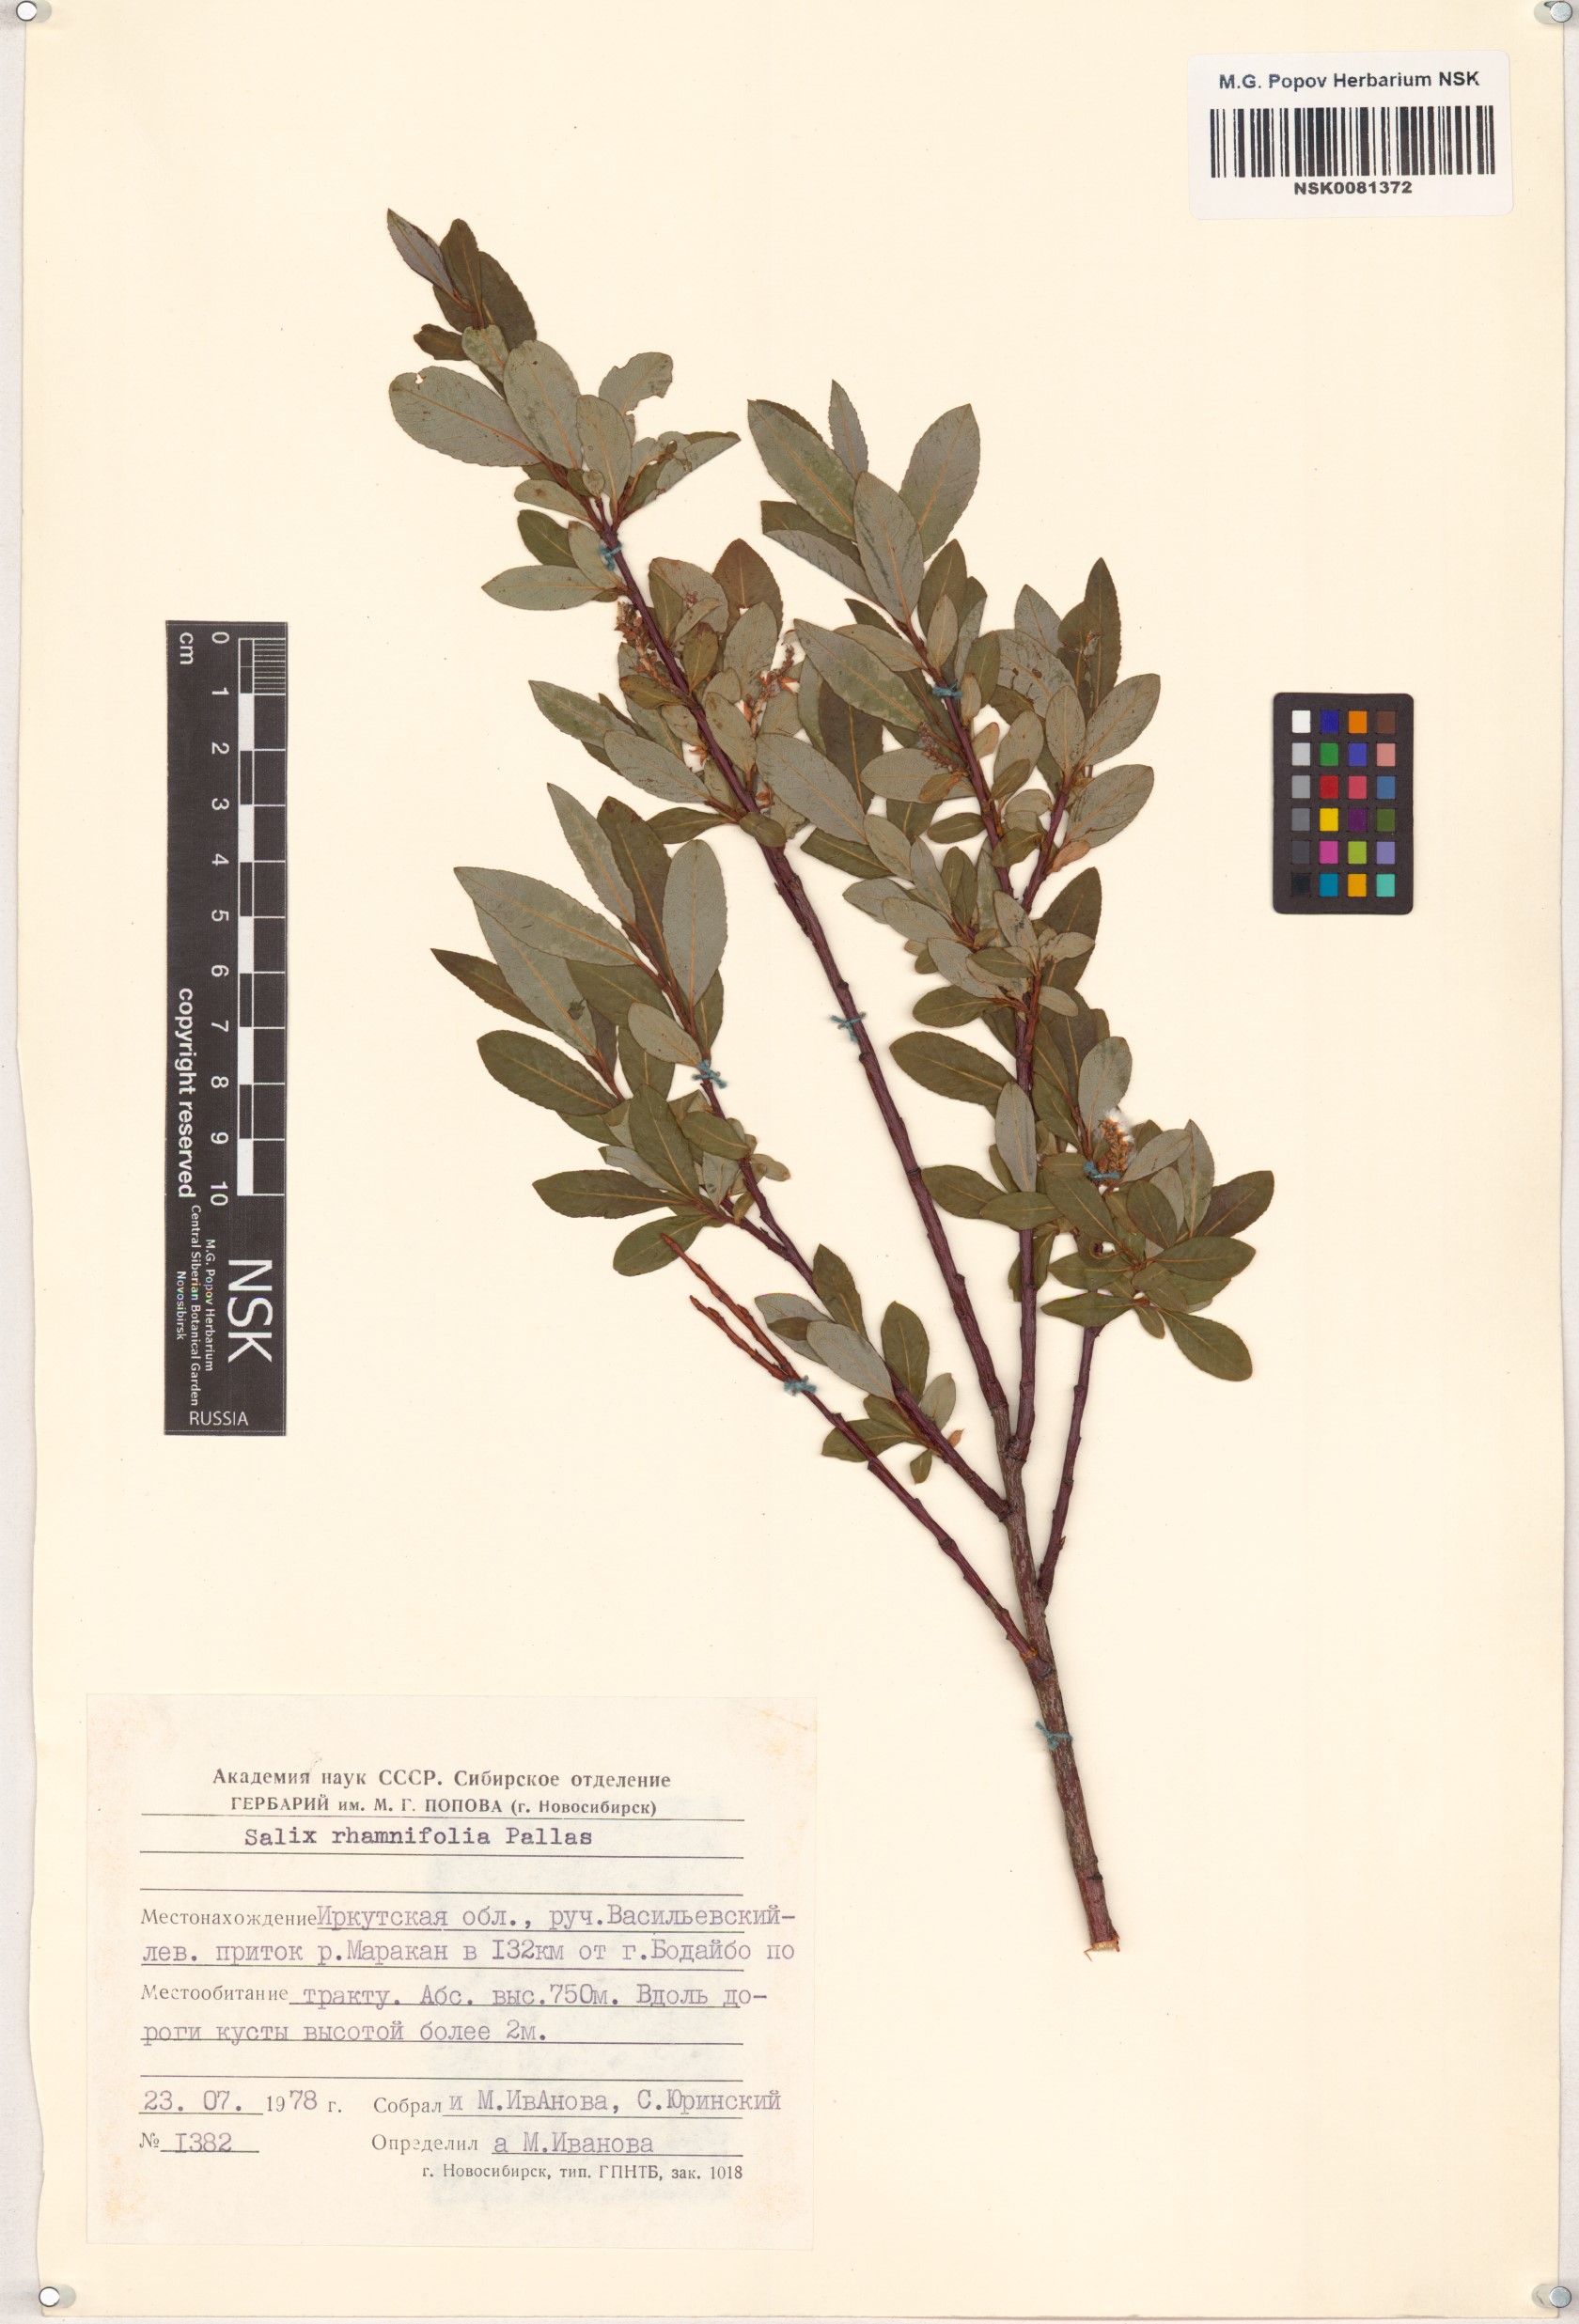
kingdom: Plantae
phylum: Tracheophyta
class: Magnoliopsida
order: Malpighiales
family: Salicaceae
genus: Salix
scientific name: Salix rhamnifolia
